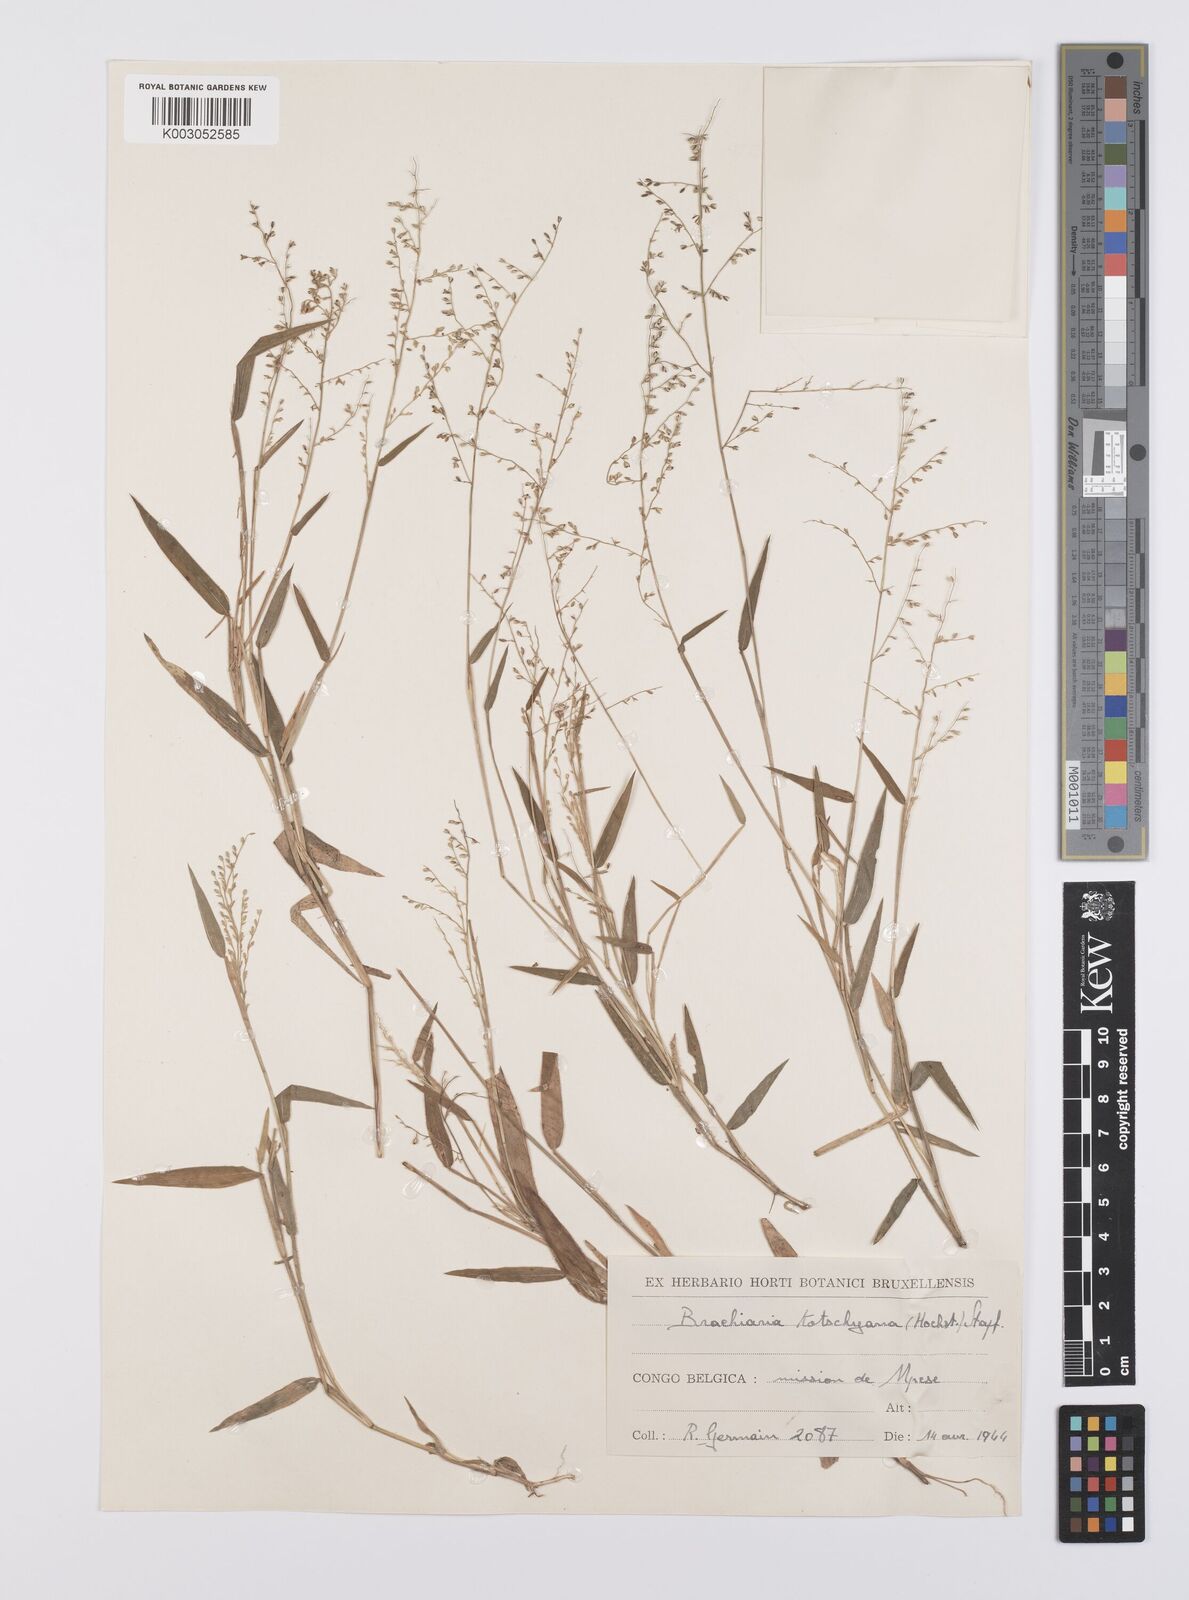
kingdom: Plantae
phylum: Tracheophyta
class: Liliopsida
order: Poales
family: Poaceae
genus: Urochloa
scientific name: Urochloa comata
